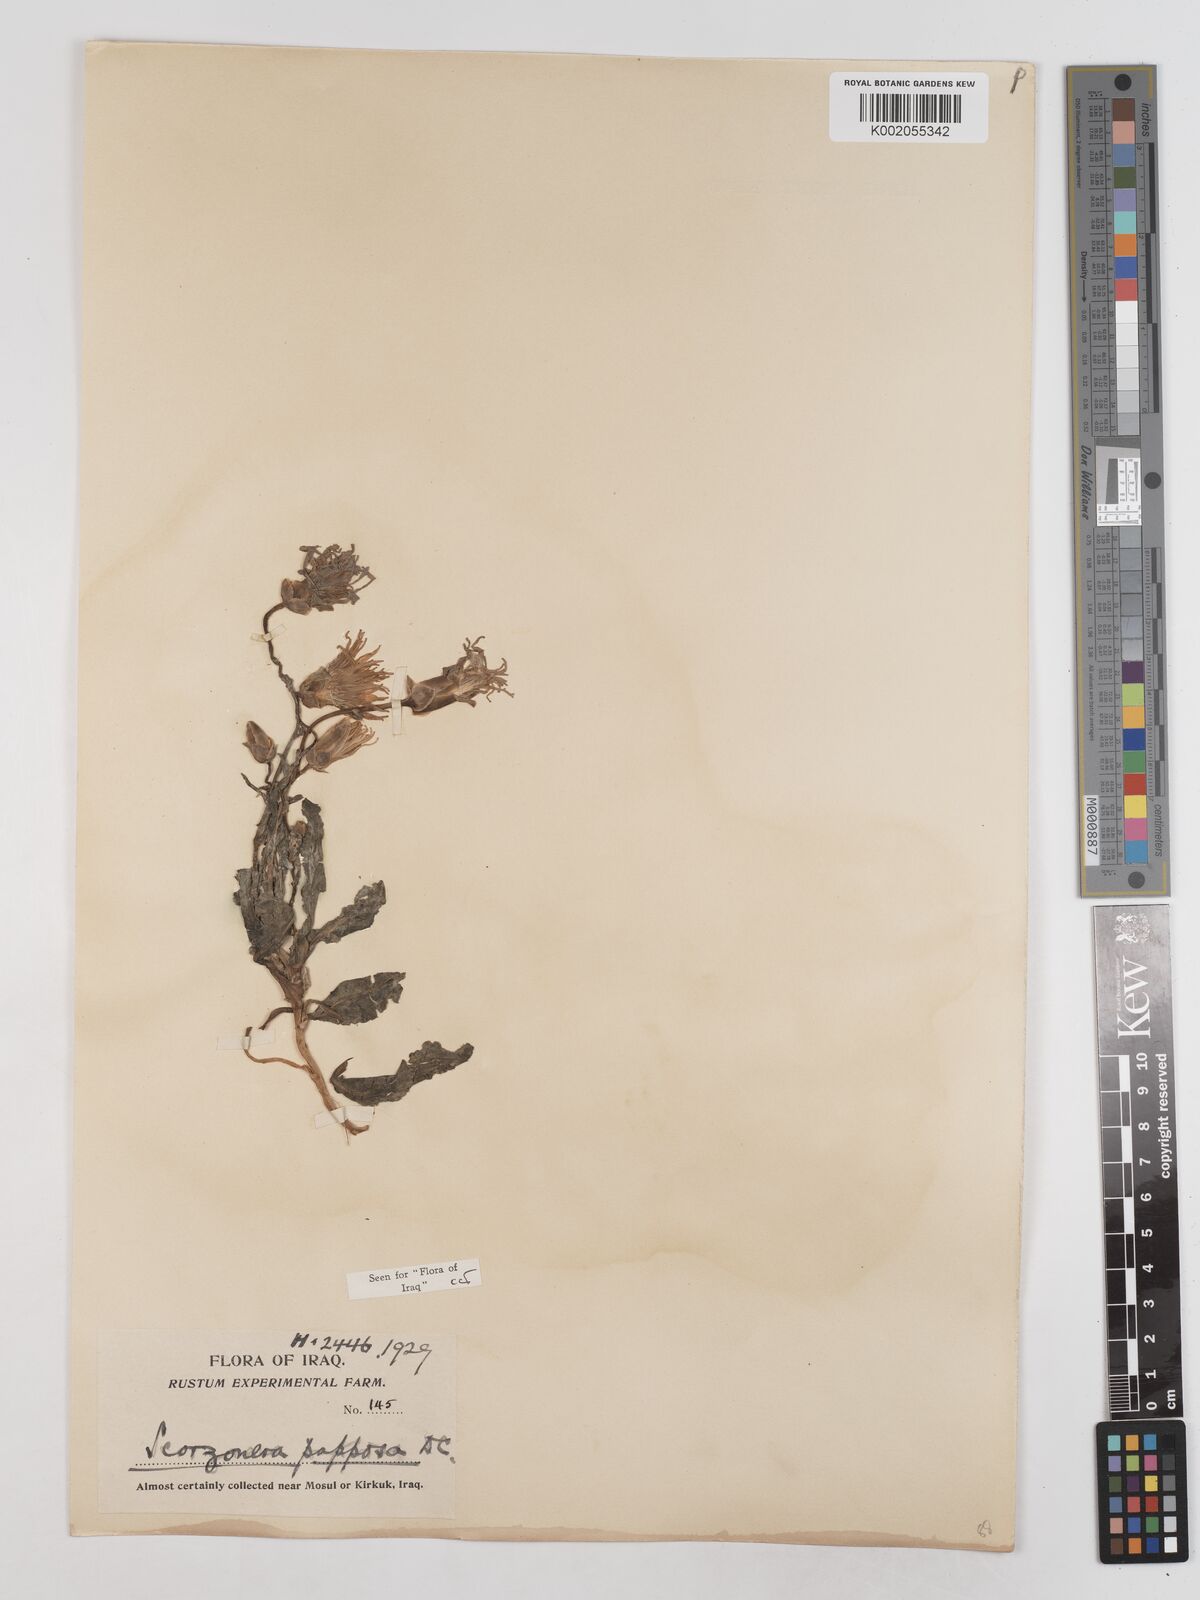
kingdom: Plantae
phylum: Tracheophyta
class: Magnoliopsida
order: Asterales
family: Asteraceae
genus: Pseudopodospermum
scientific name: Pseudopodospermum papposum
